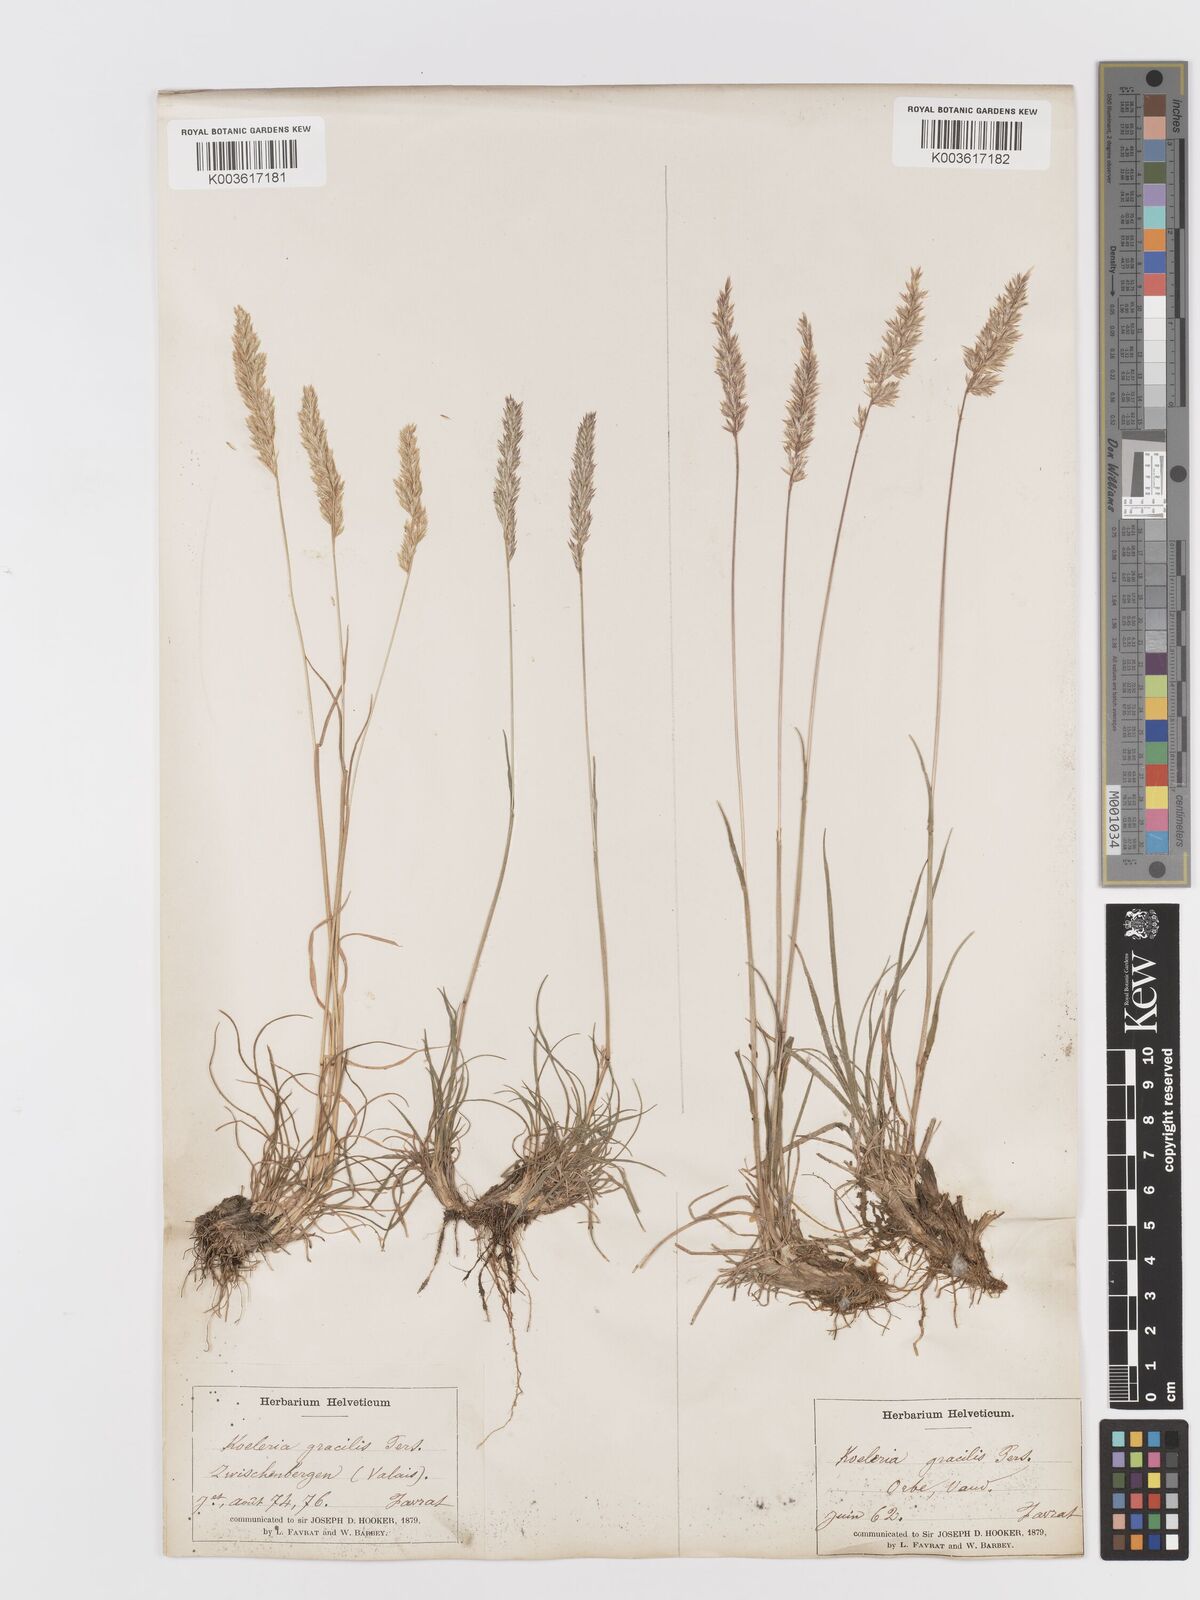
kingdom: Plantae
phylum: Tracheophyta
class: Liliopsida
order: Poales
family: Poaceae
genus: Koeleria
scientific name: Koeleria
